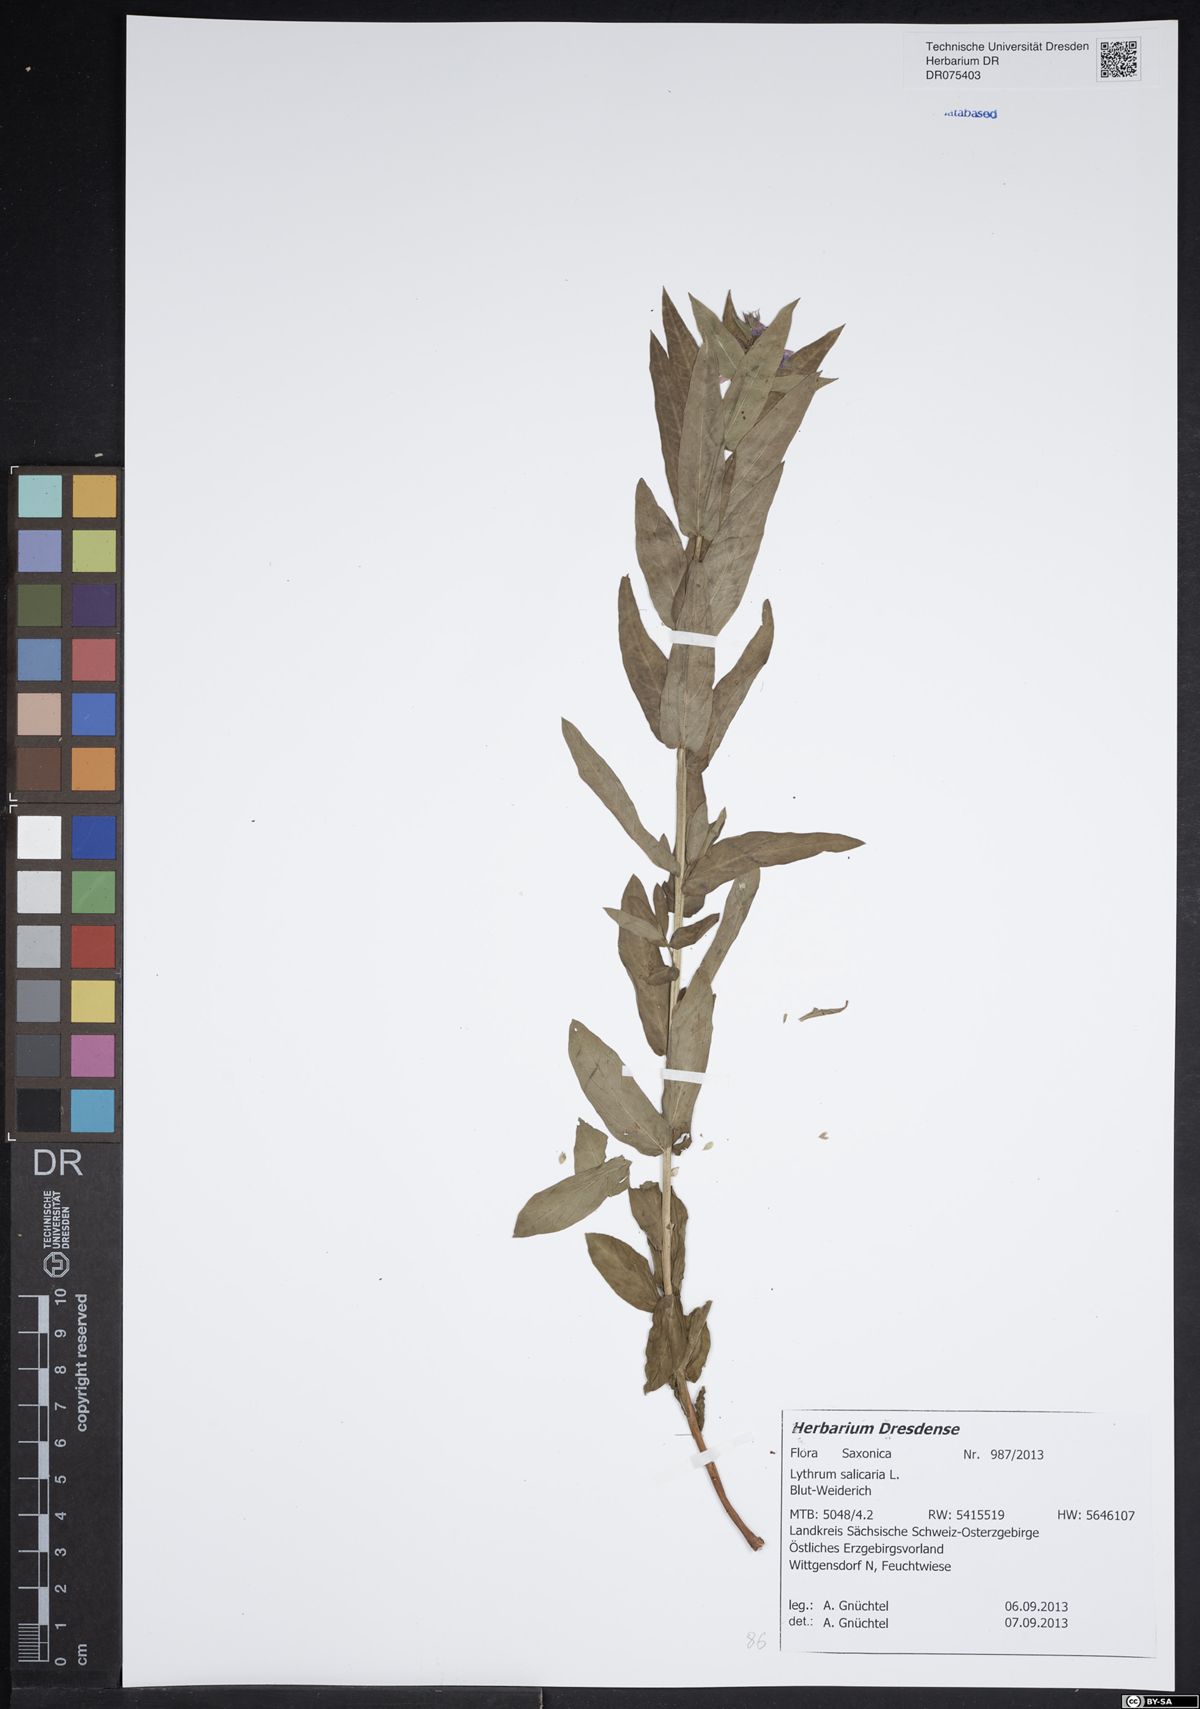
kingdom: Plantae
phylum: Tracheophyta
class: Magnoliopsida
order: Myrtales
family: Lythraceae
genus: Lythrum
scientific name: Lythrum salicaria
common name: Purple loosestrife
